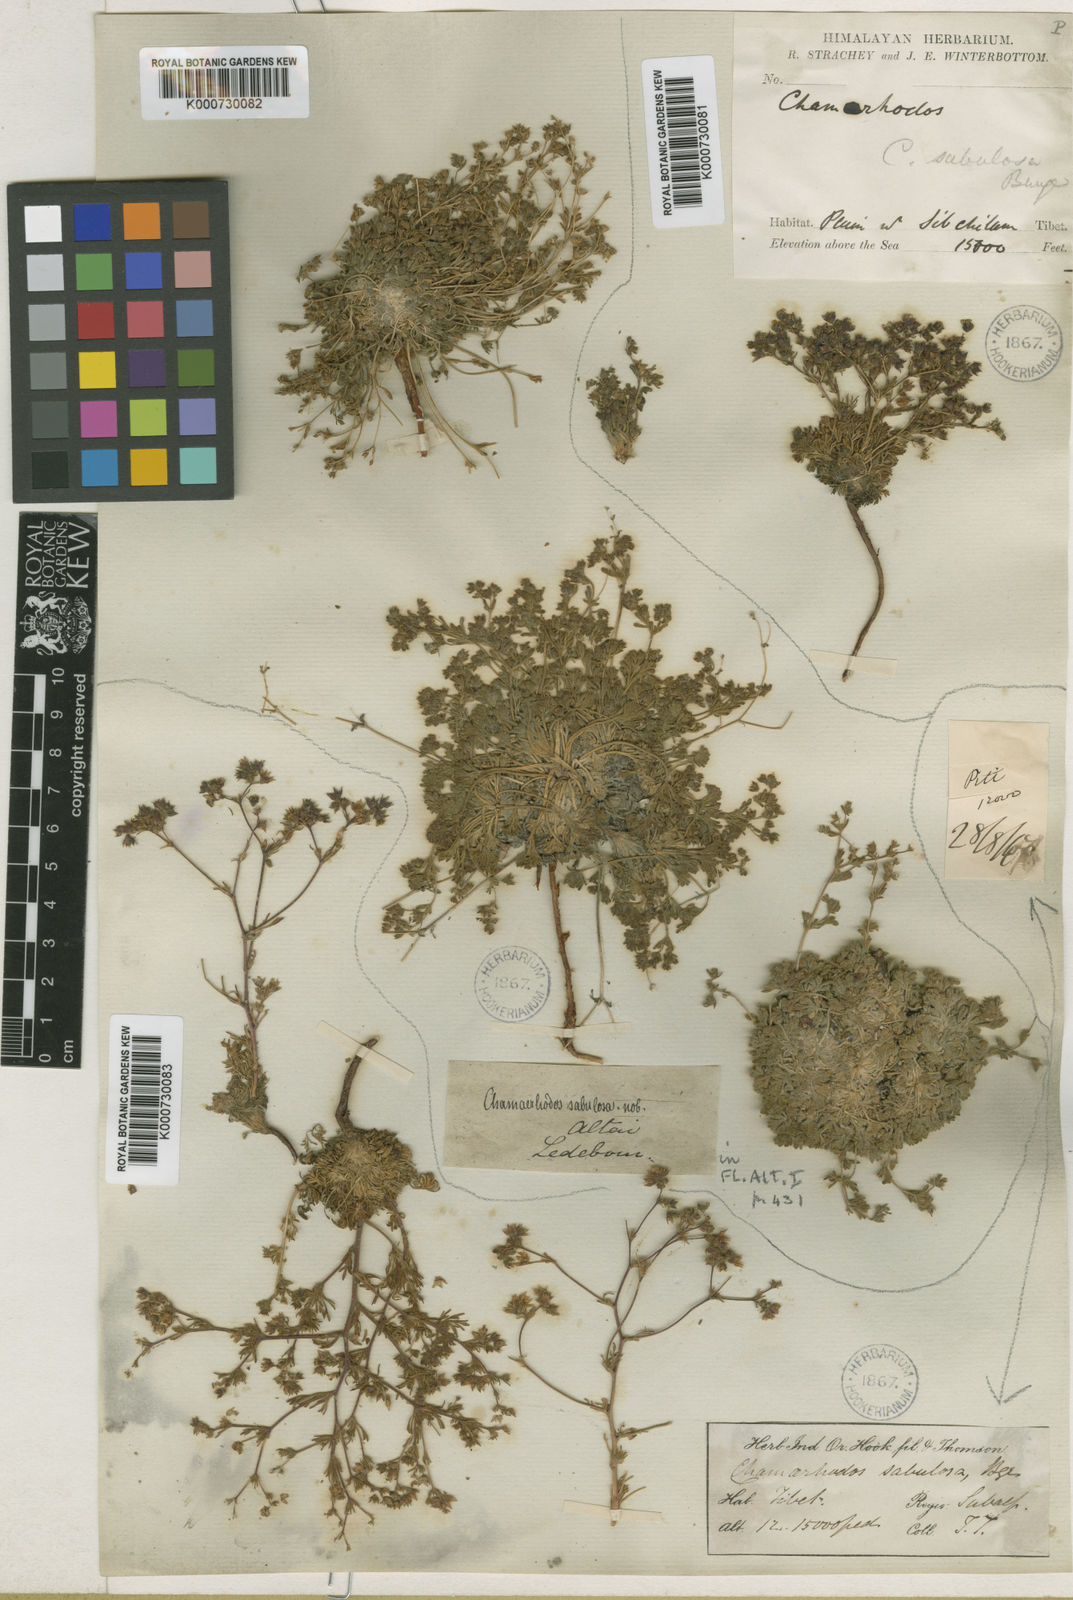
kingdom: Plantae
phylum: Tracheophyta
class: Magnoliopsida
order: Rosales
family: Rosaceae
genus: Chamaerhodos
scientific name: Chamaerhodos sabulosa
